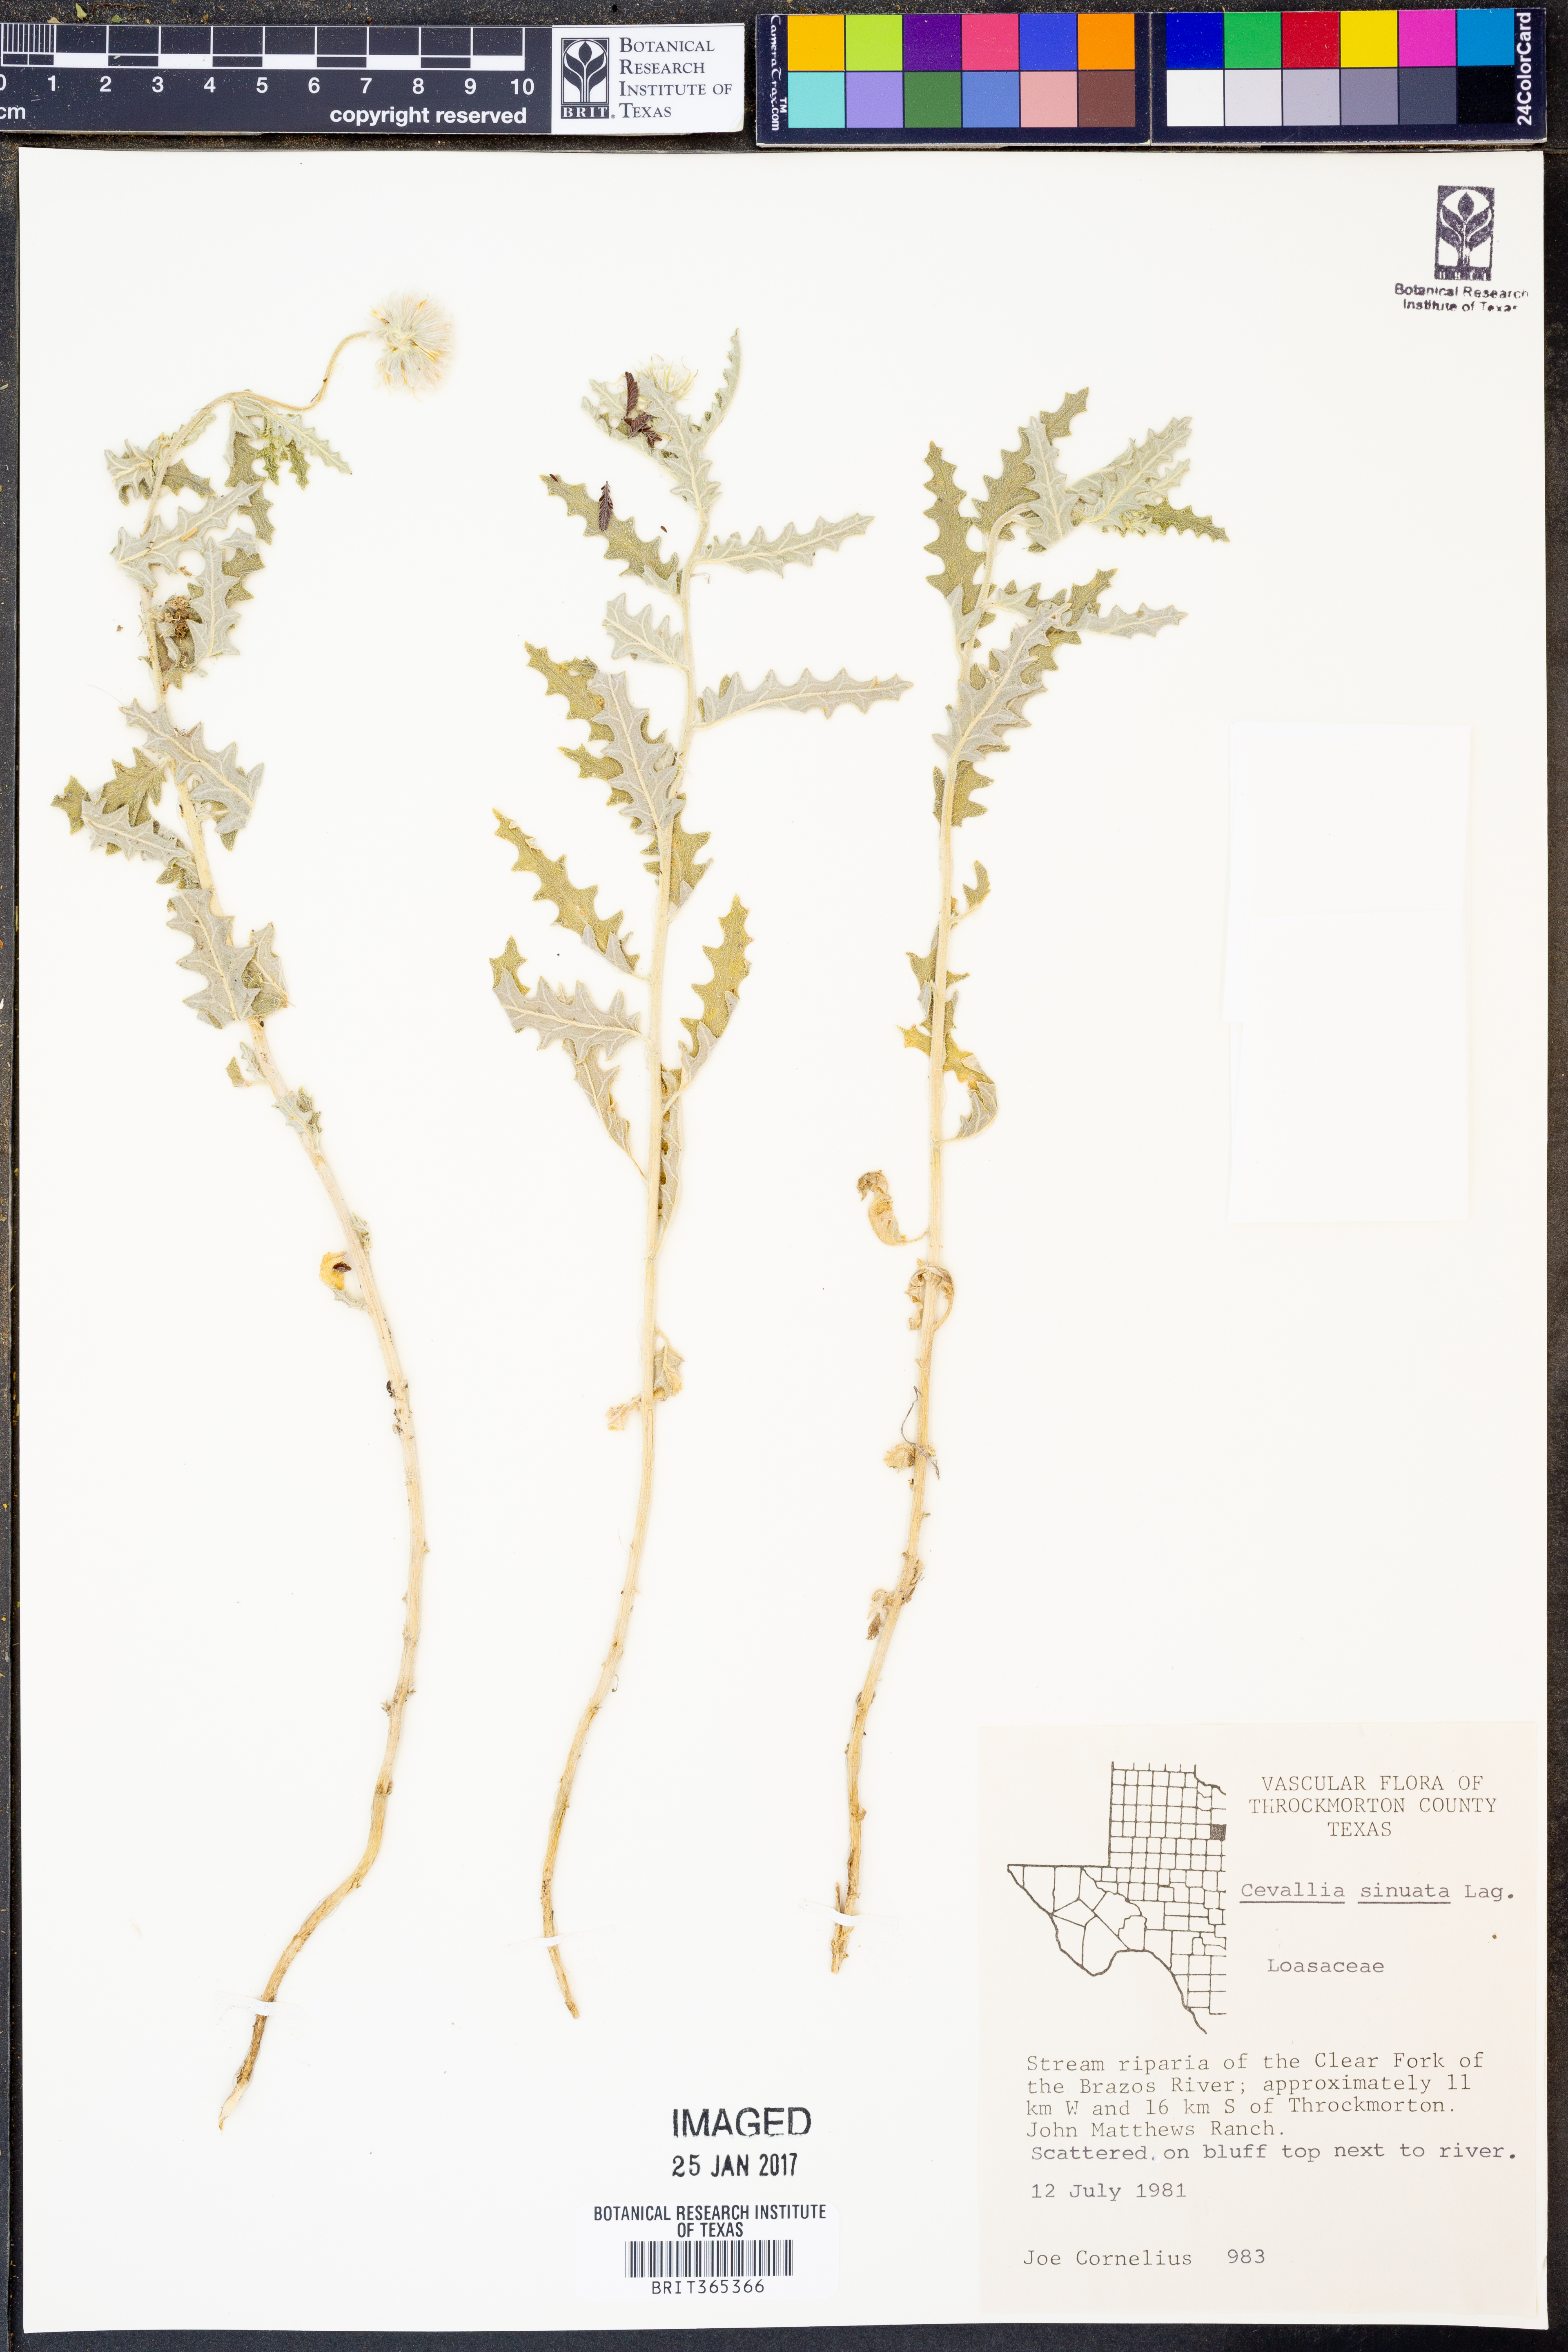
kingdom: Plantae
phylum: Tracheophyta
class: Magnoliopsida
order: Cornales
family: Loasaceae
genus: Cevallia
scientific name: Cevallia sinuata
